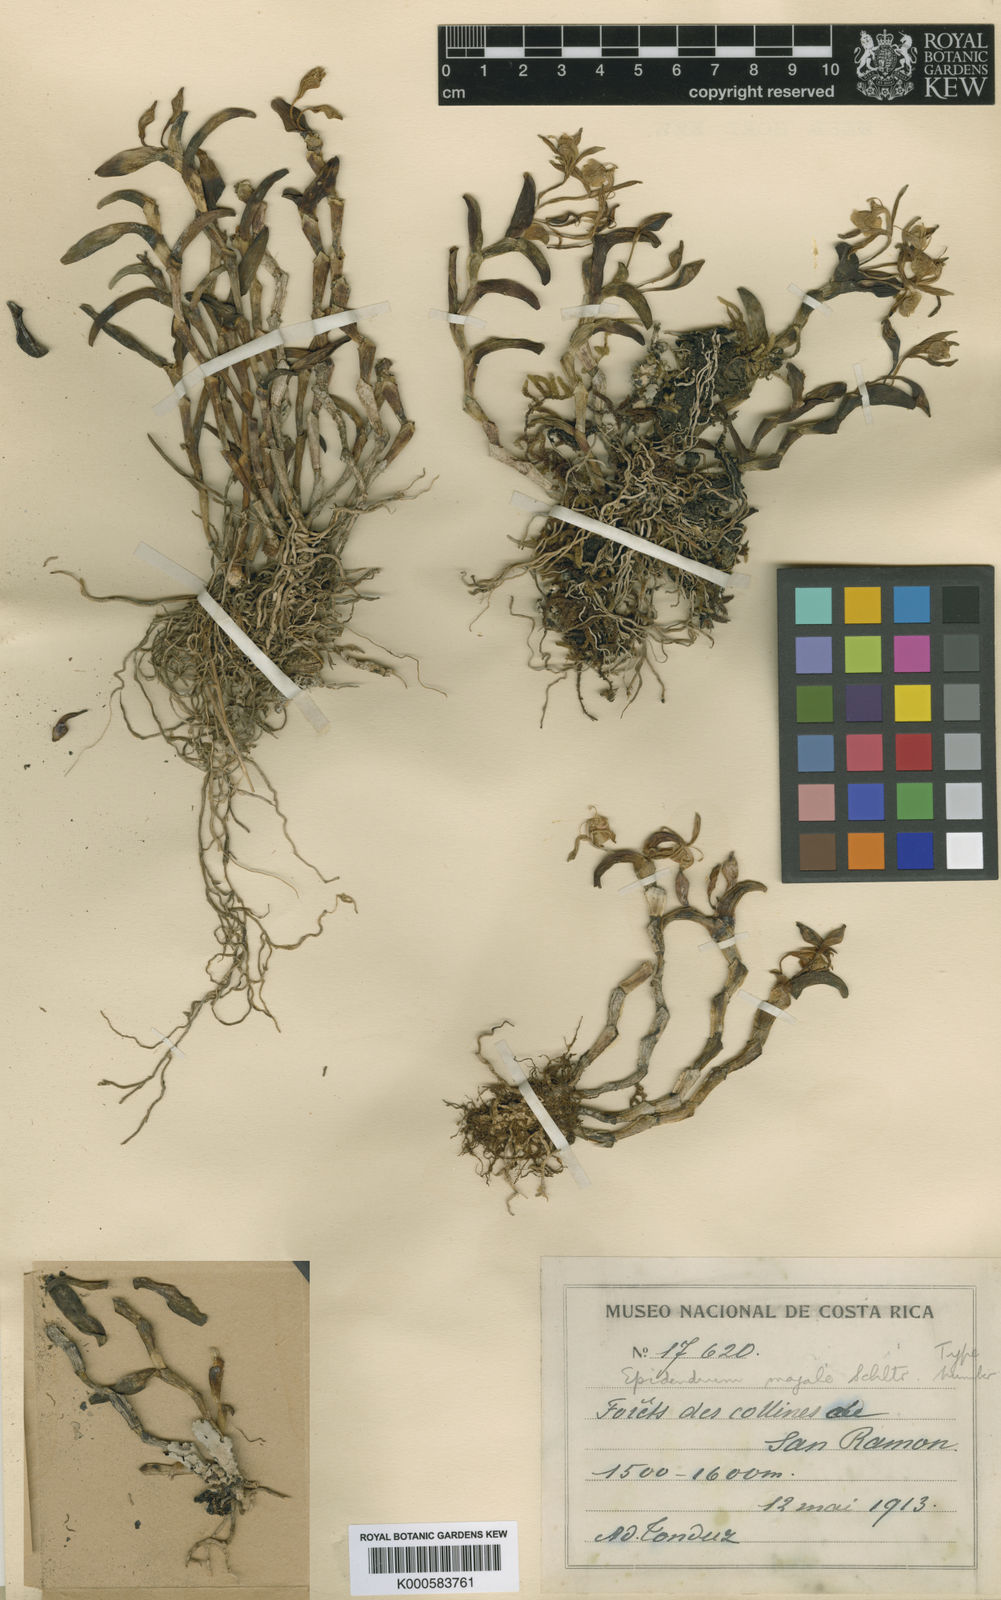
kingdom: Plantae
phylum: Tracheophyta
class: Liliopsida
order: Asparagales
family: Orchidaceae
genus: Epidendrum
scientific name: Epidendrum firmum
